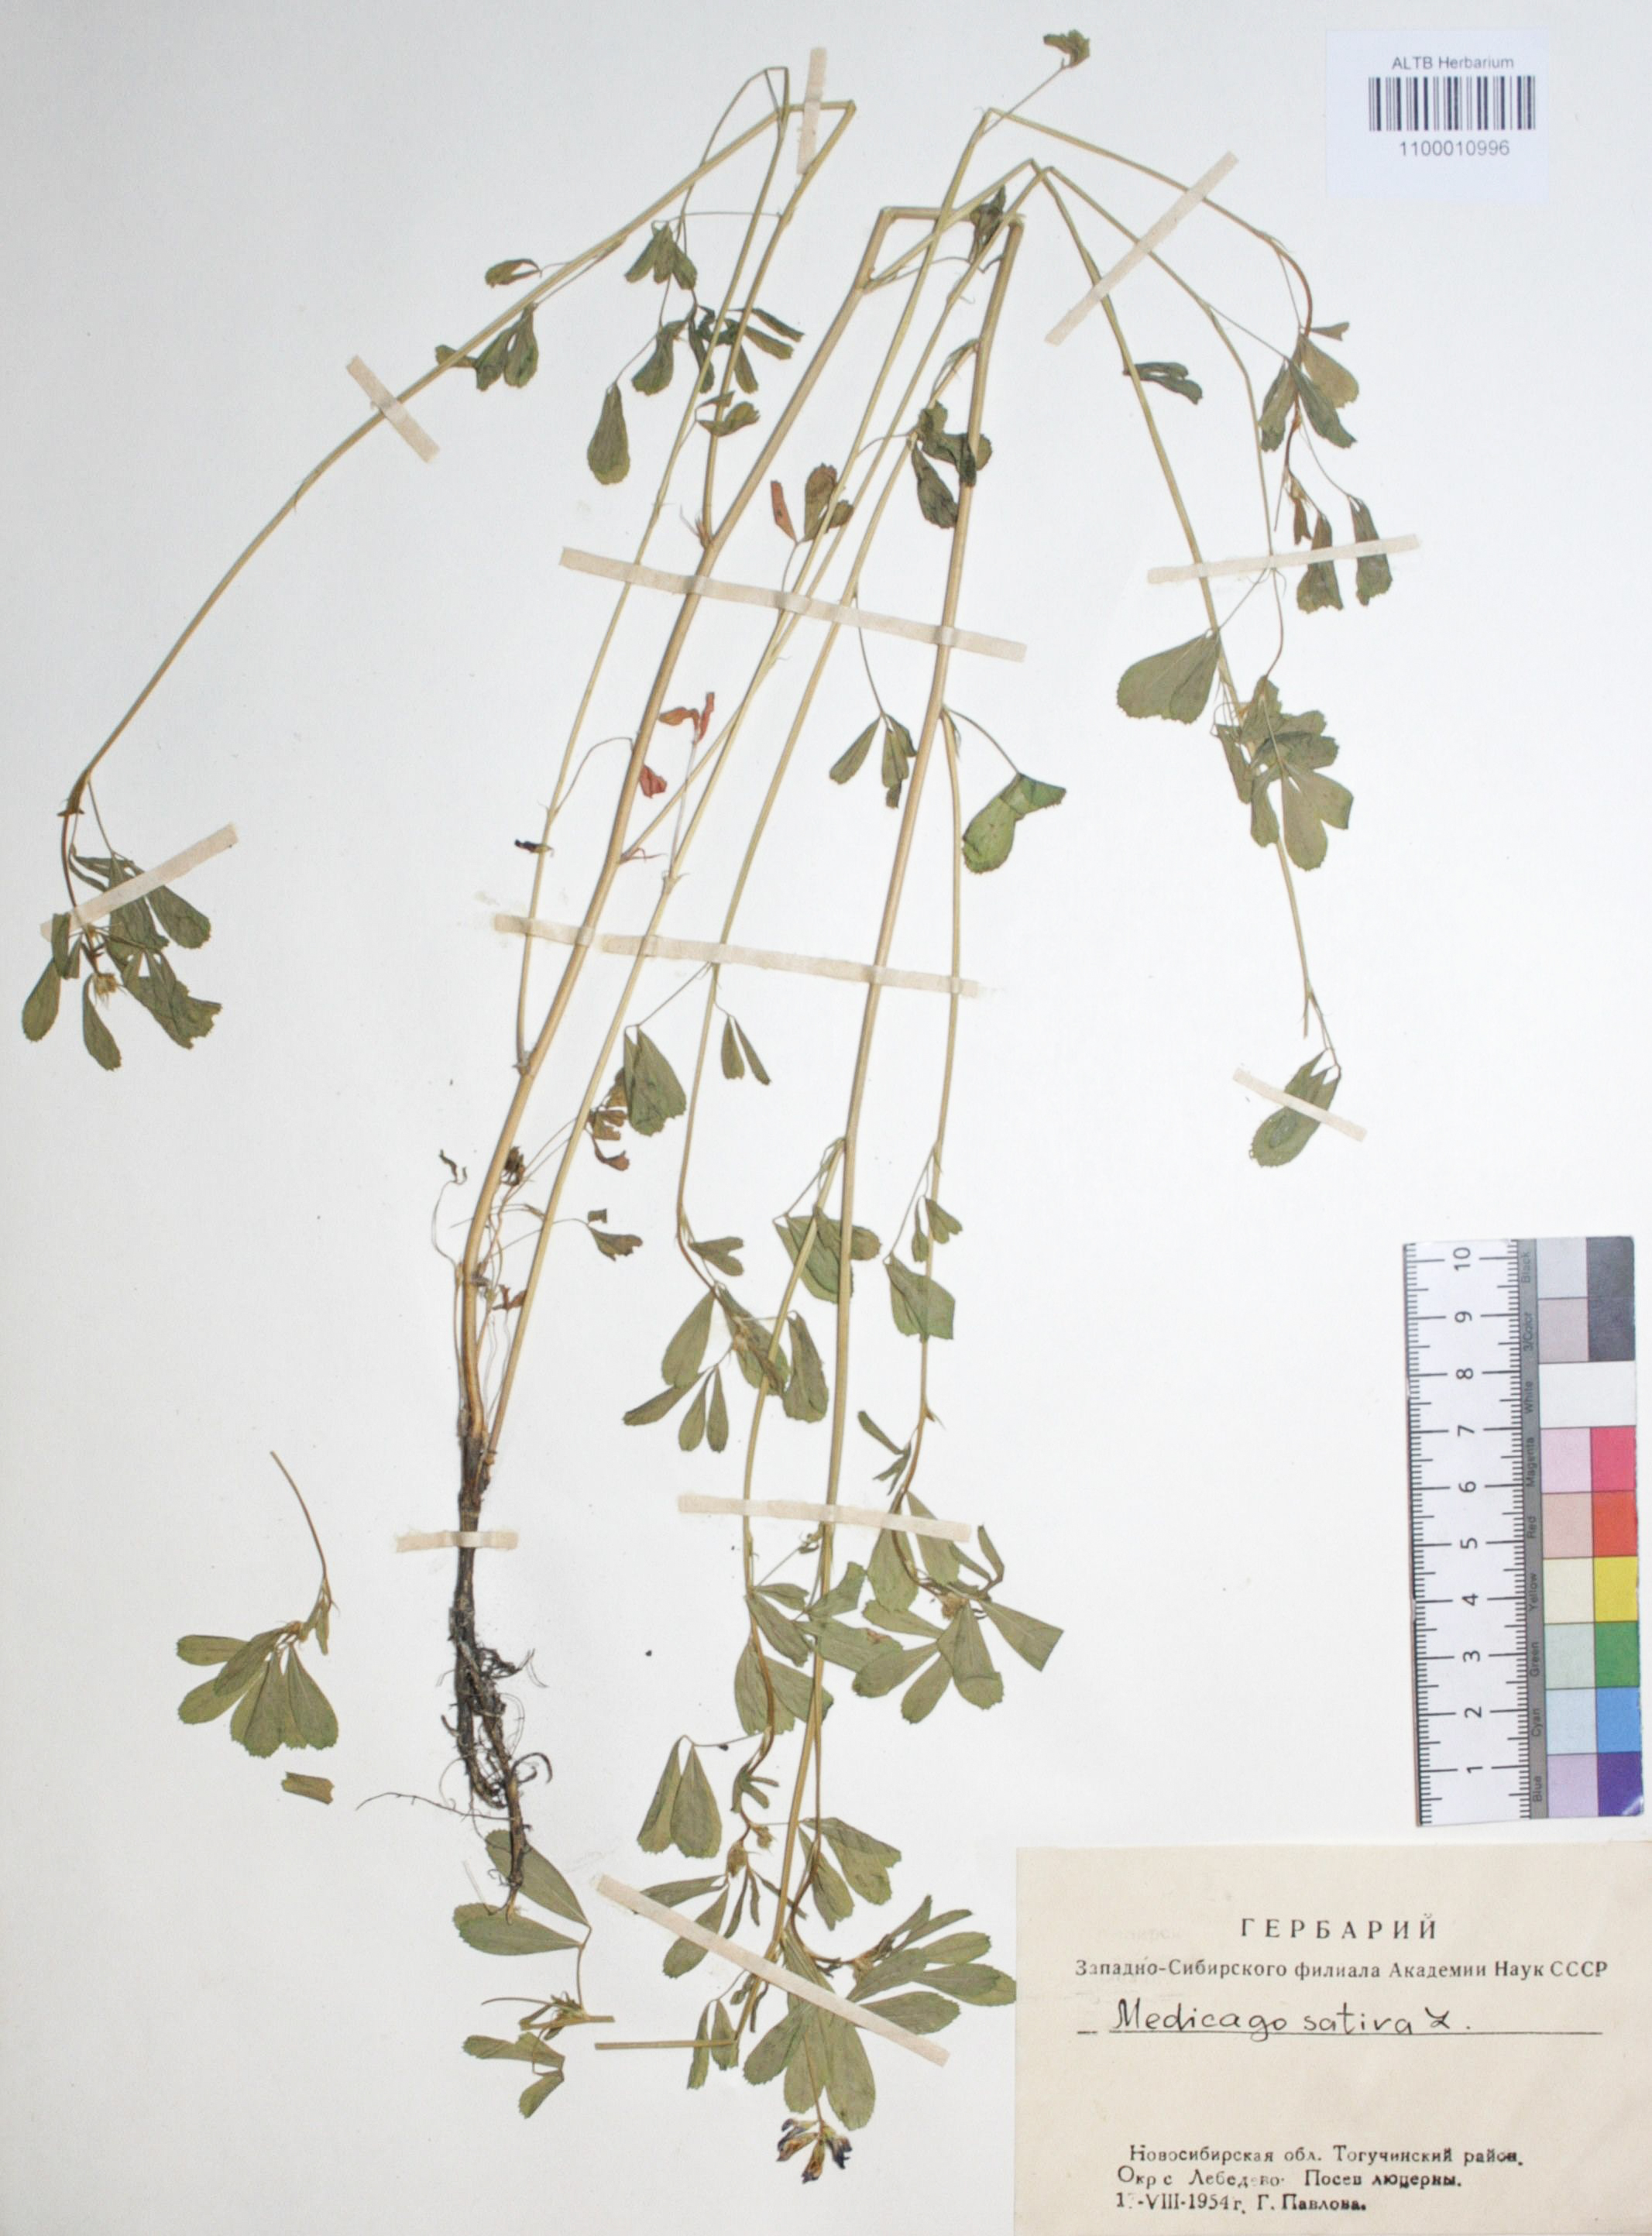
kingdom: Plantae
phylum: Tracheophyta
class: Magnoliopsida
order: Fabales
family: Fabaceae
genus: Medicago
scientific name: Medicago sativa
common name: Alfalfa
